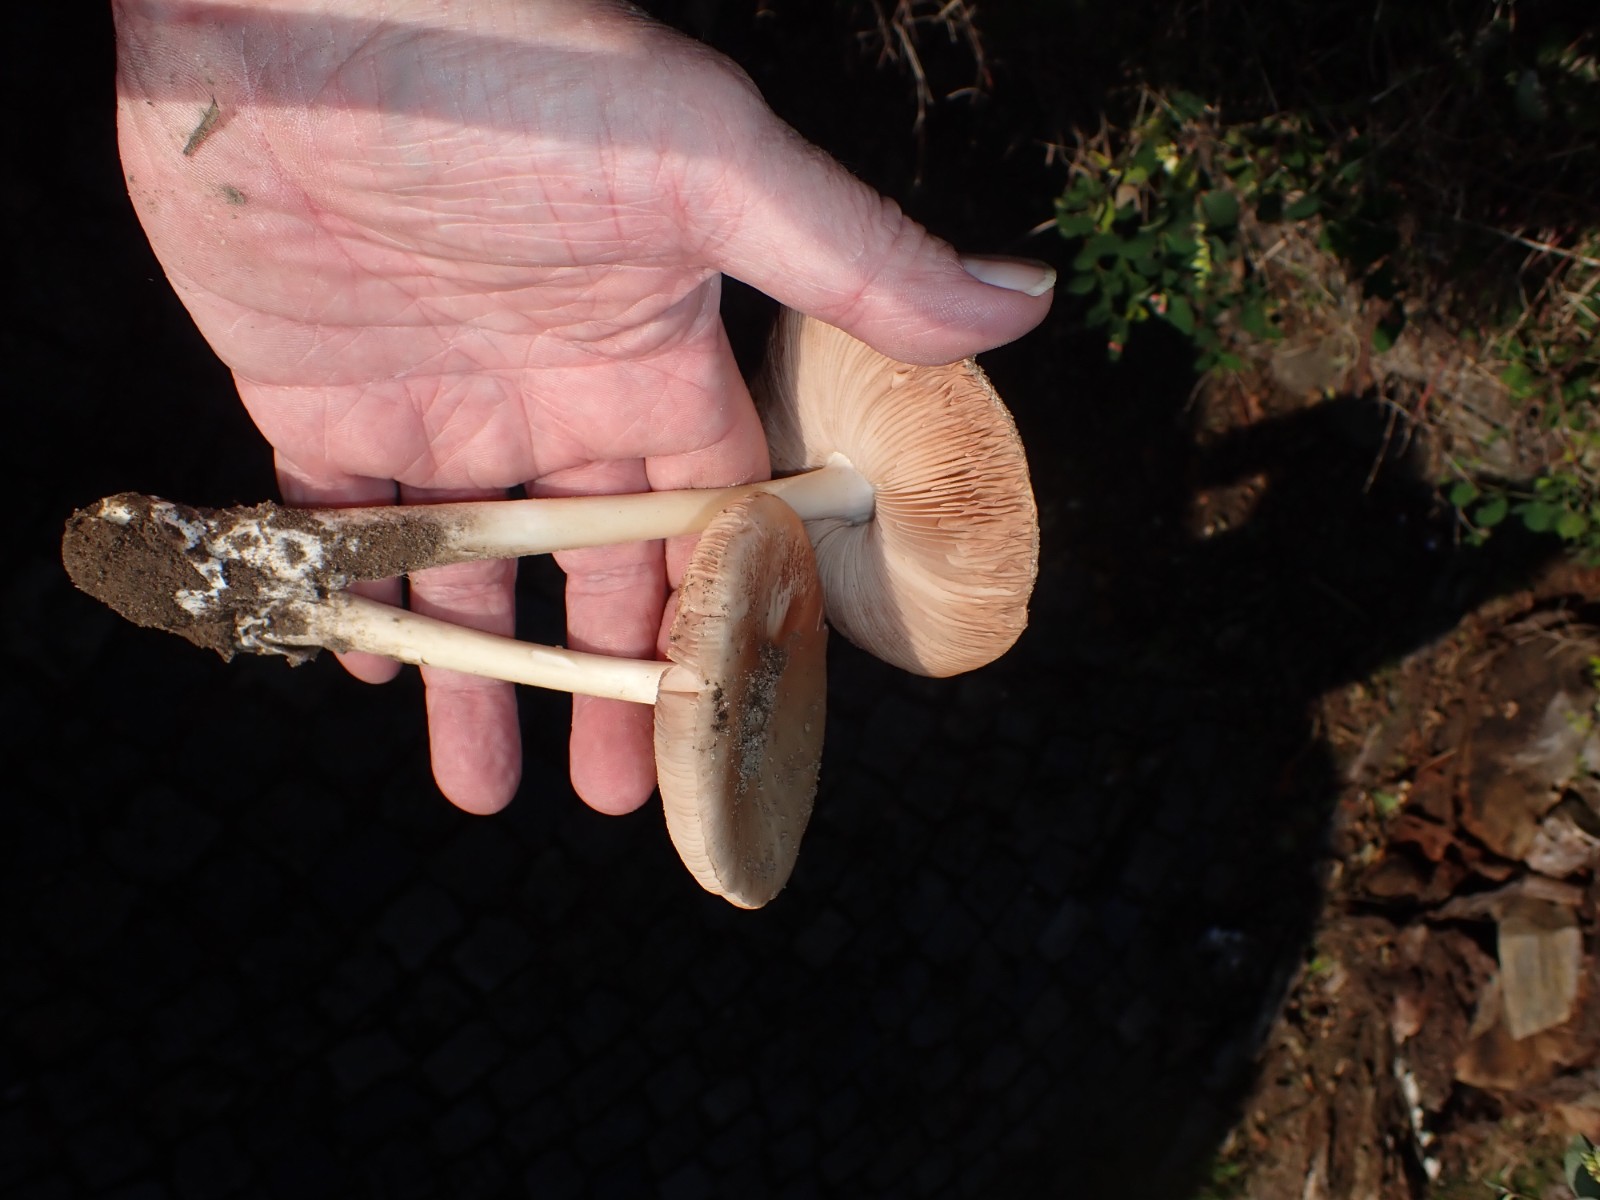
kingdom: Fungi
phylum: Basidiomycota
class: Agaricomycetes
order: Agaricales
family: Pluteaceae
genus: Volvopluteus
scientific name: Volvopluteus gloiocephalus
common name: høj posesvamp
